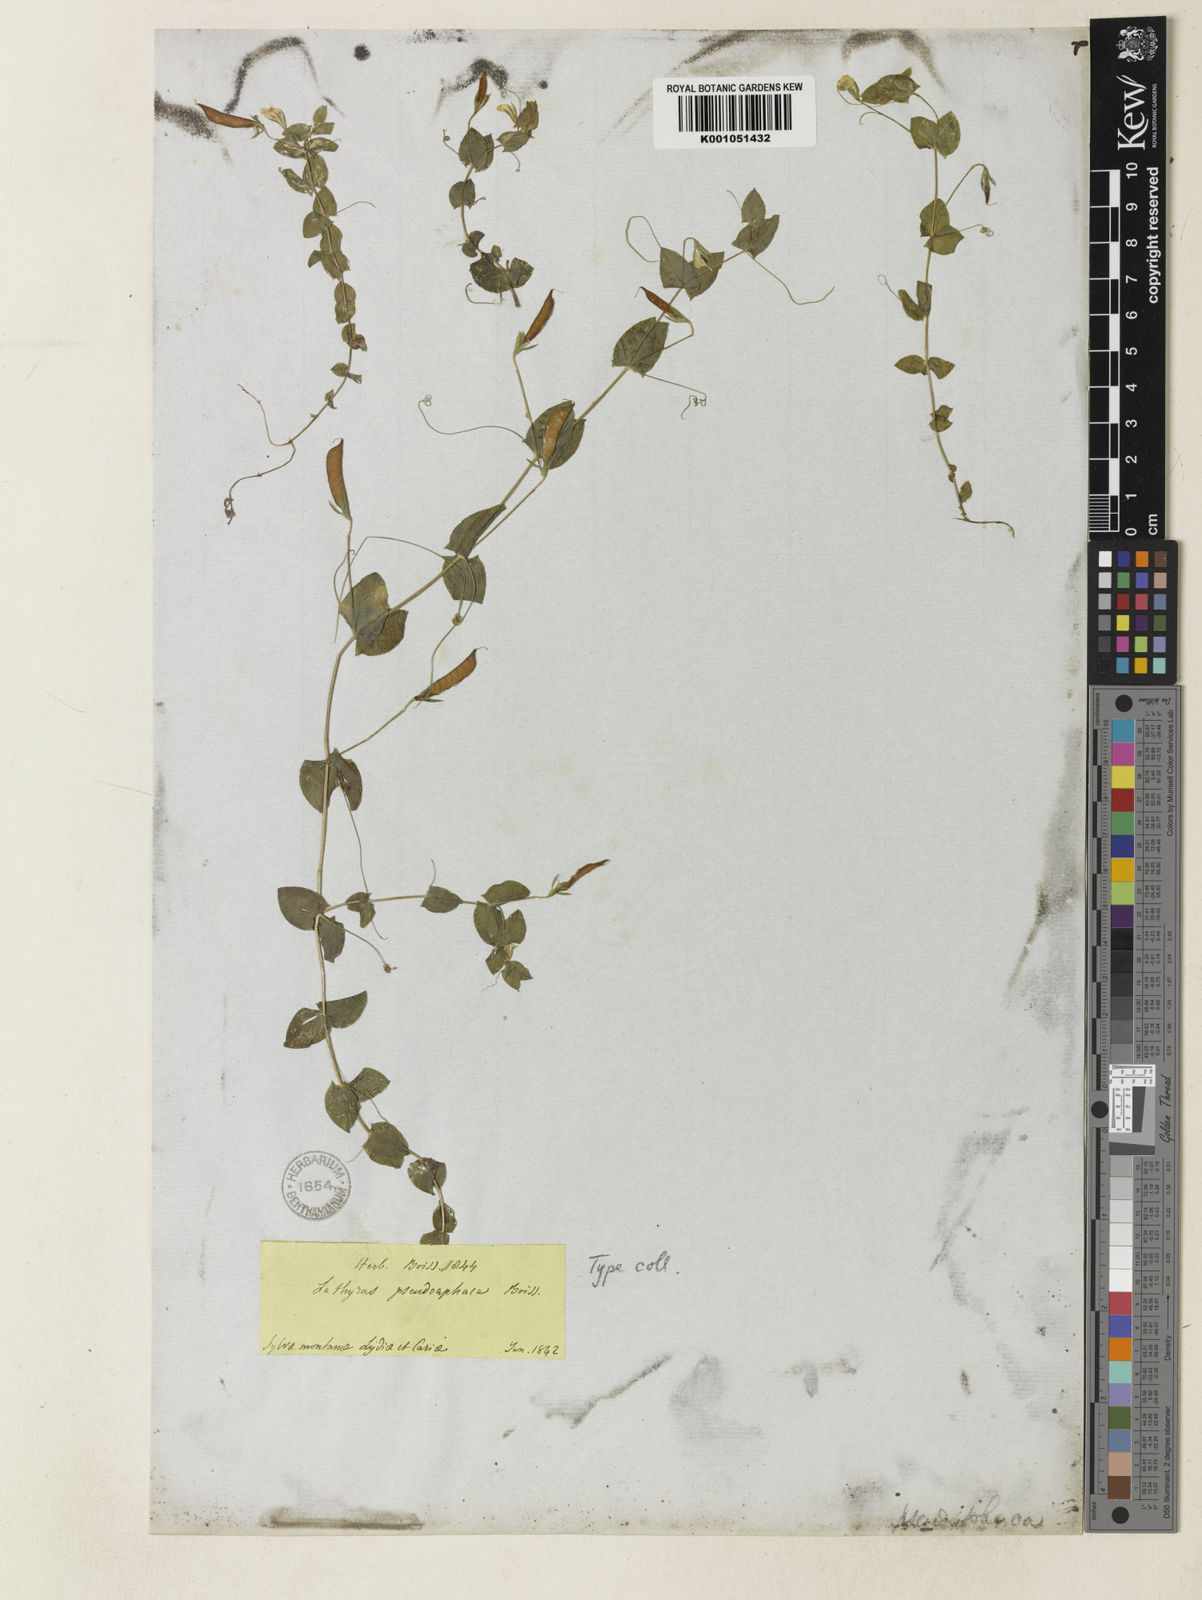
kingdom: Plantae
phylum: Tracheophyta
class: Magnoliopsida
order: Fabales
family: Fabaceae
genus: Lathyrus
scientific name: Lathyrus aphaca
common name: Yellow vetchling
